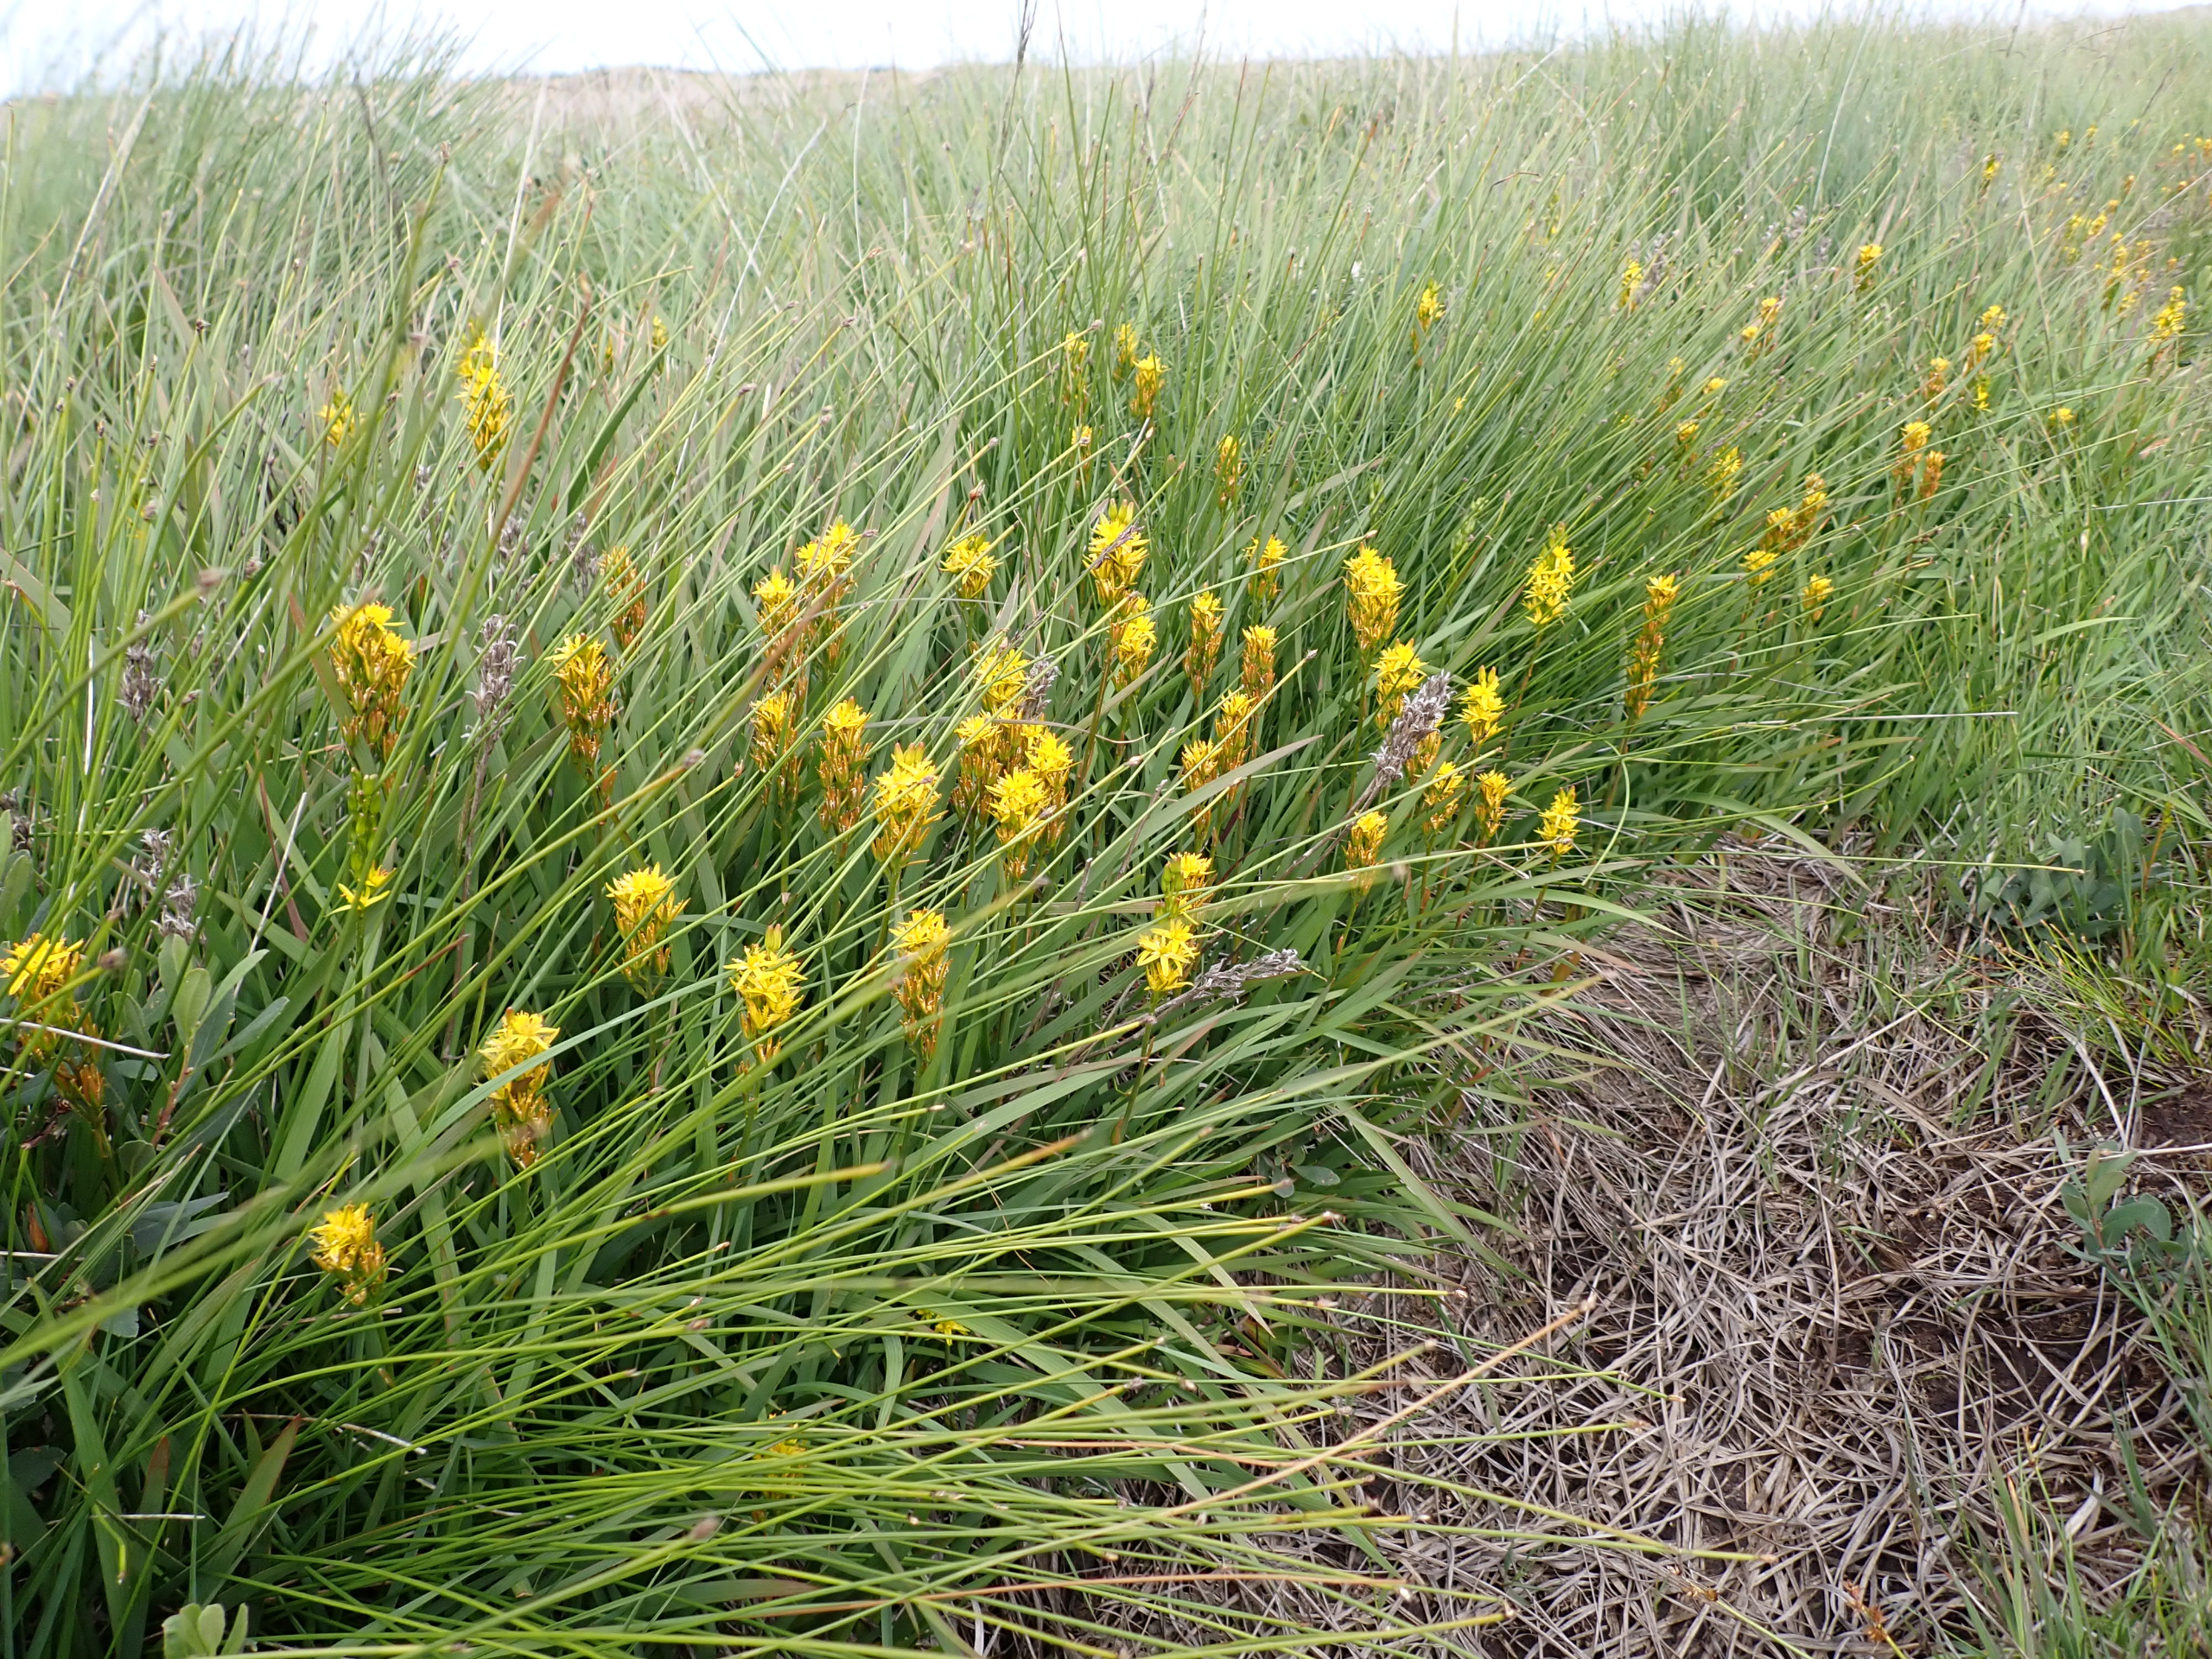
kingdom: Plantae
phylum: Tracheophyta
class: Liliopsida
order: Dioscoreales
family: Nartheciaceae
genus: Narthecium
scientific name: Narthecium ossifragum
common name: Benbræk
